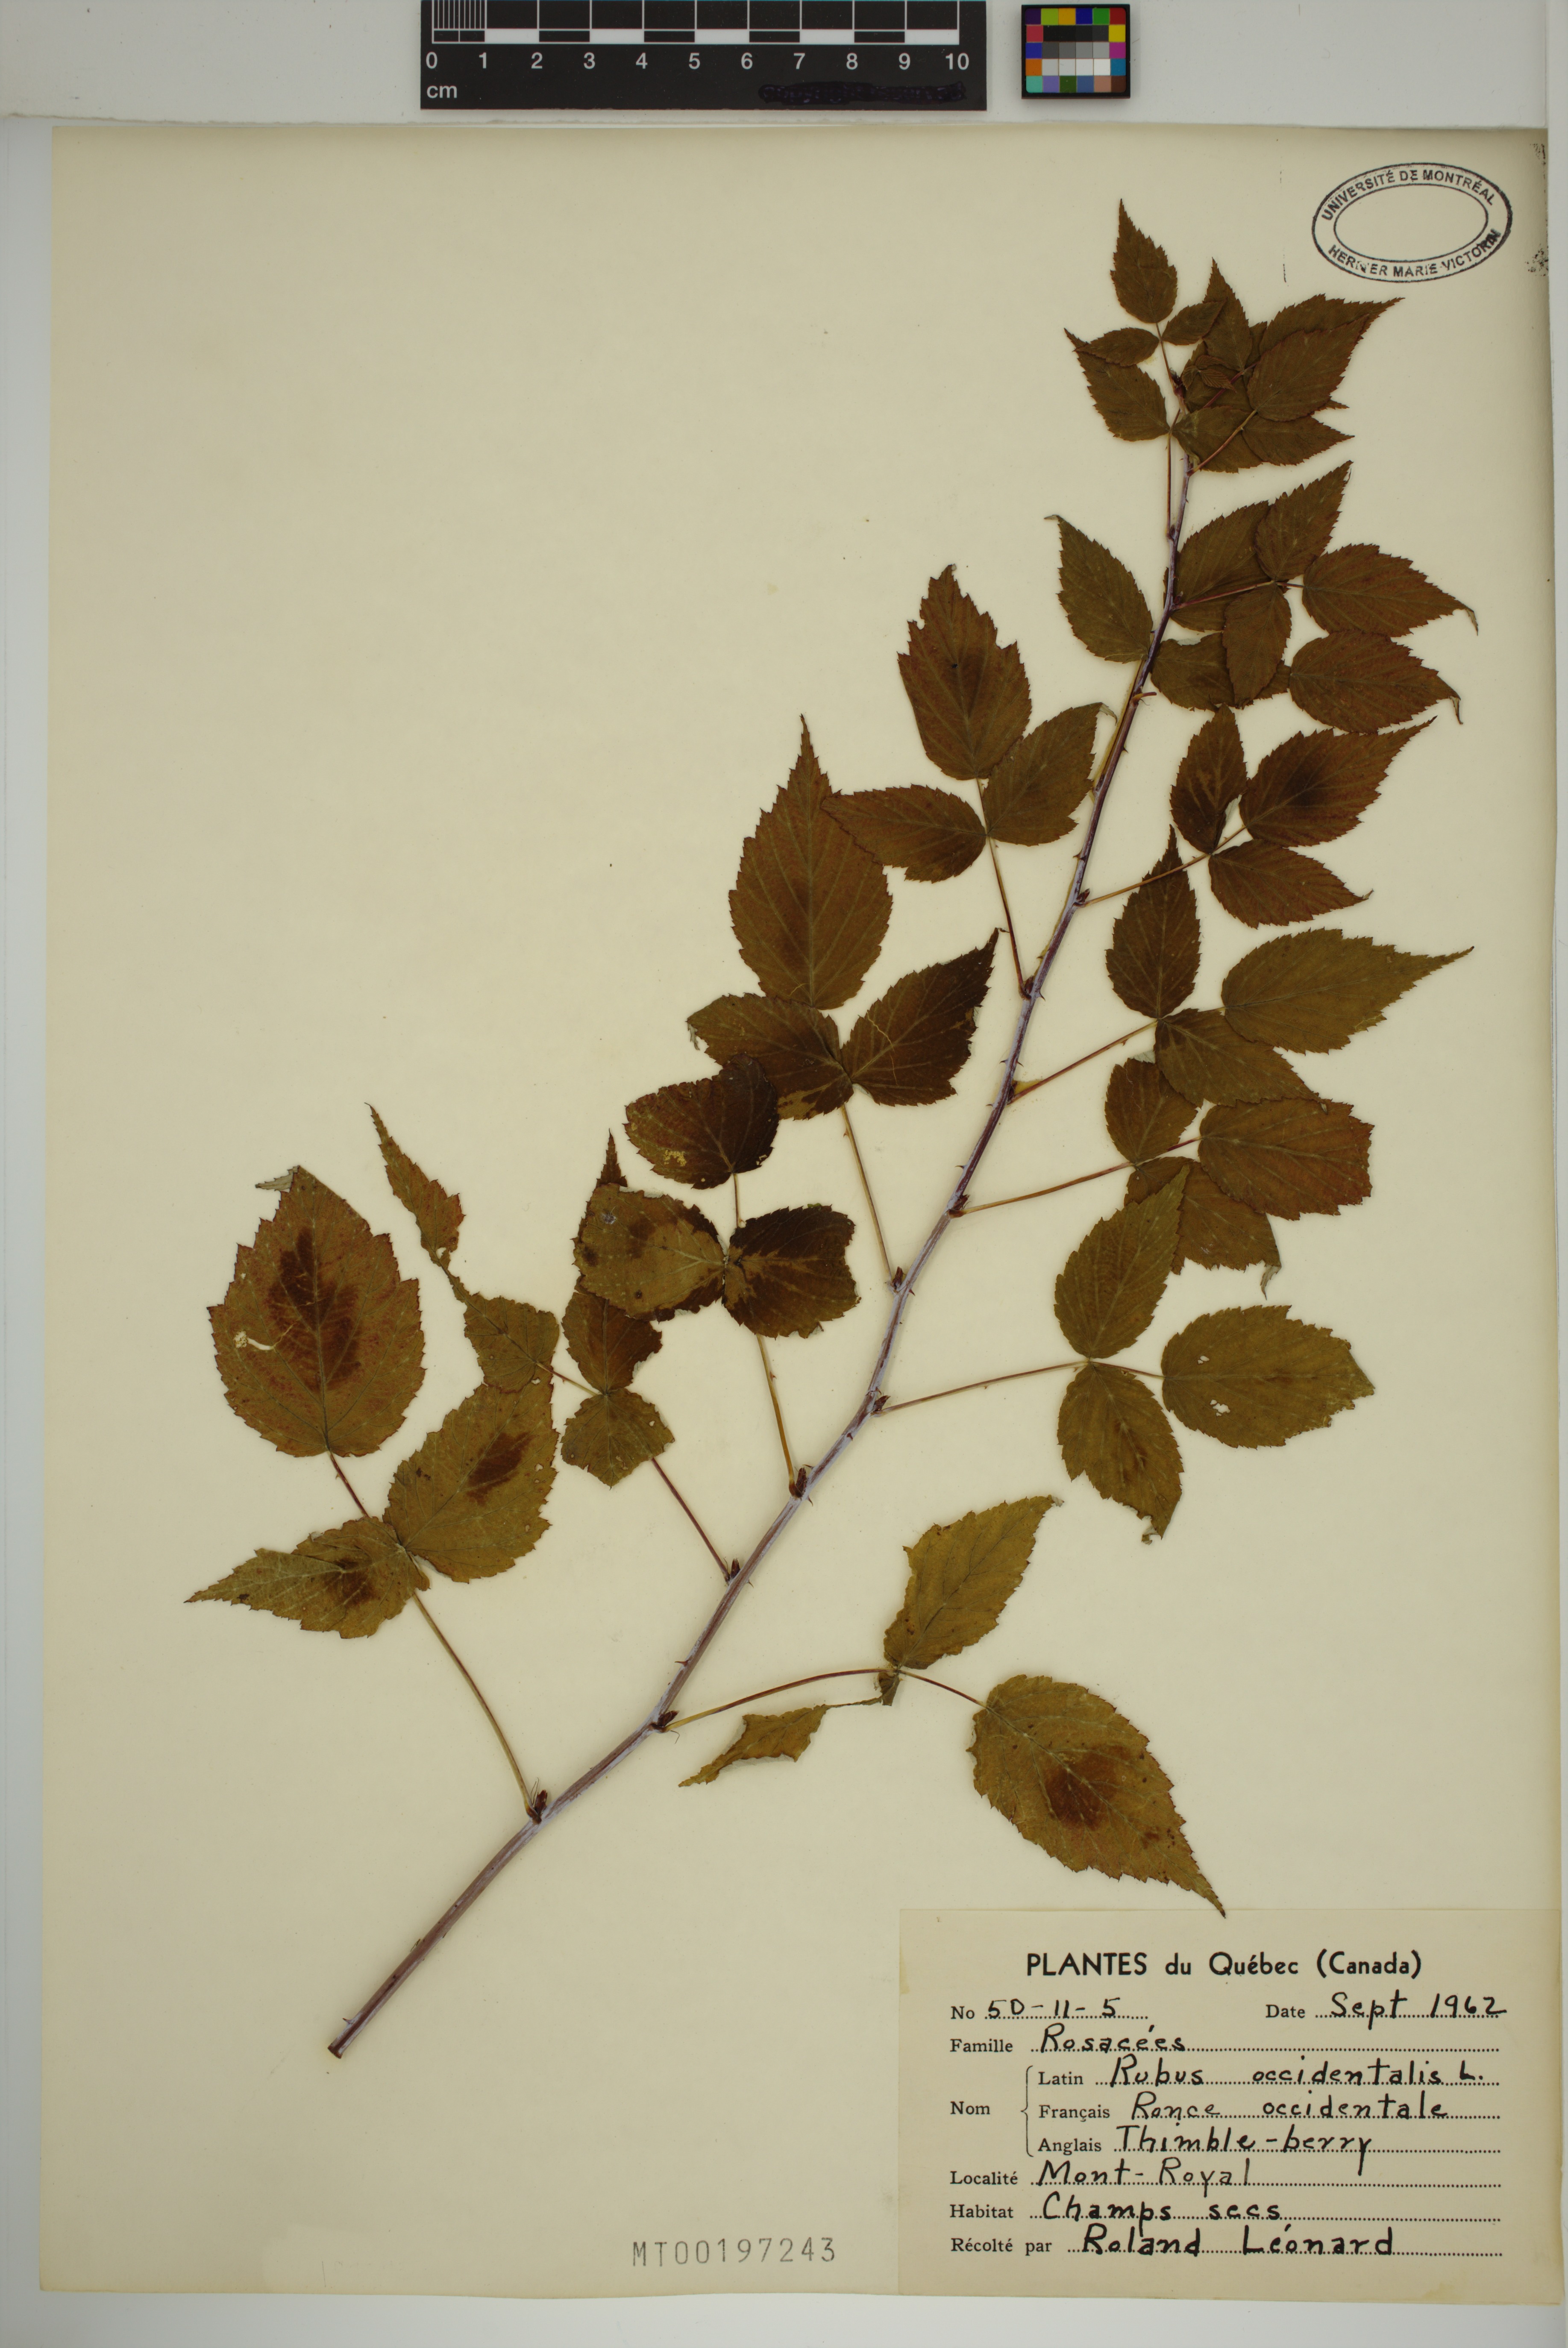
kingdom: Plantae
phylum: Tracheophyta
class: Magnoliopsida
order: Rosales
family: Rosaceae
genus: Rubus
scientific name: Rubus occidentalis
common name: Black raspberry
